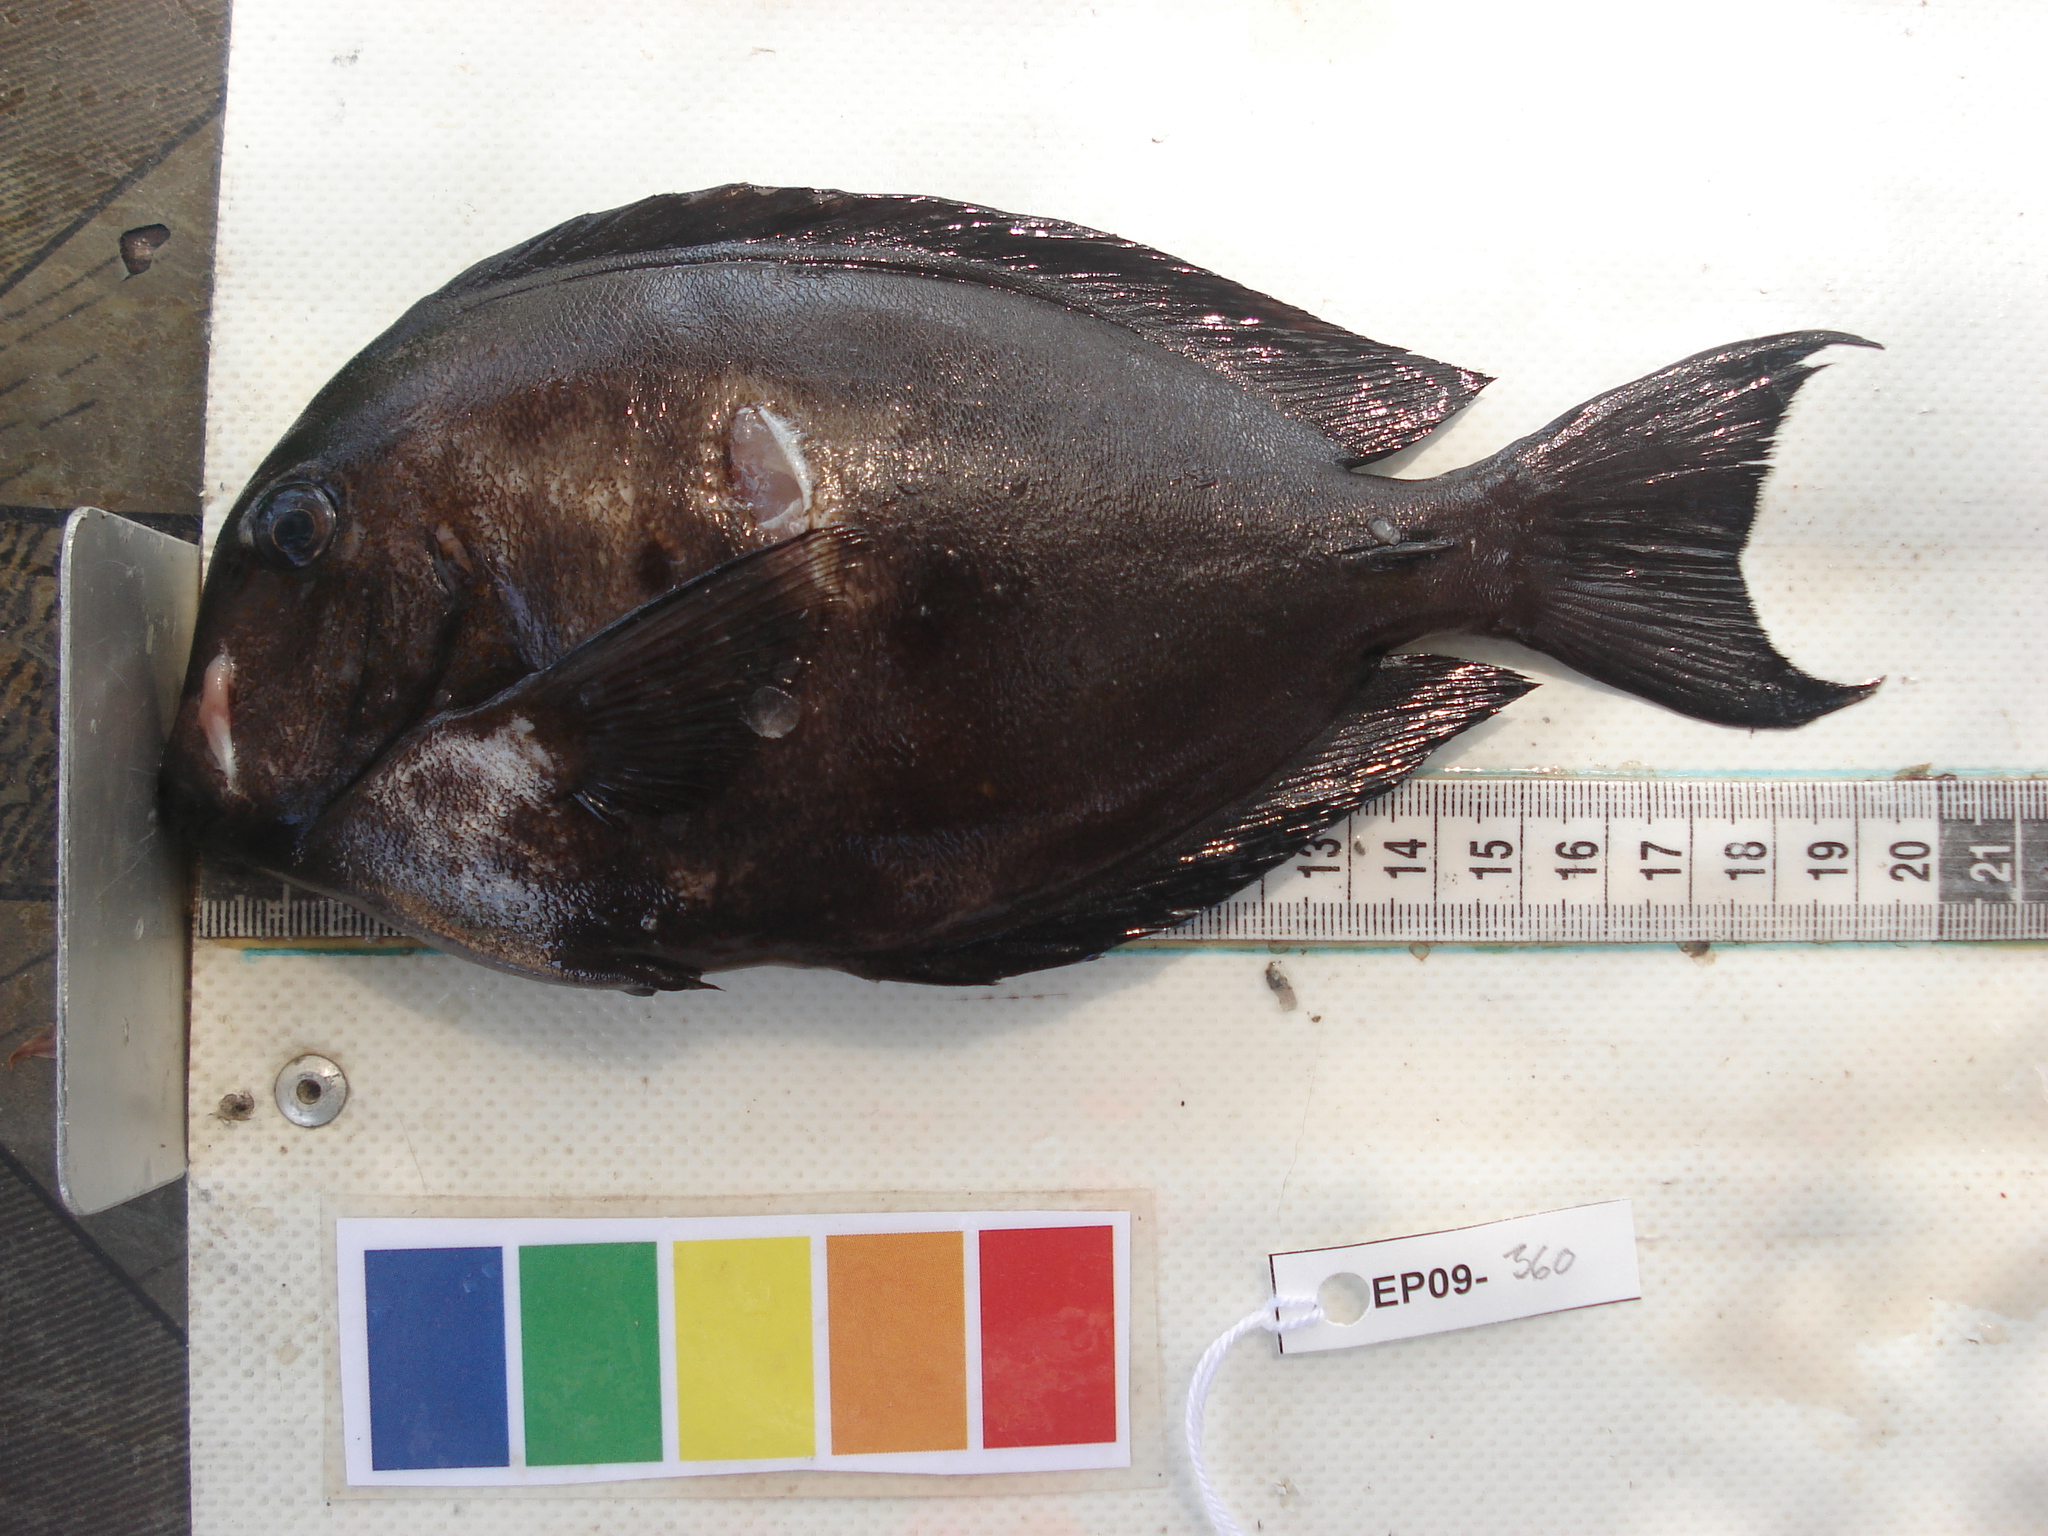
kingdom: Animalia
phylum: Chordata
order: Perciformes
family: Acanthuridae
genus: Acanthurus
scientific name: Acanthurus nigrofuscus
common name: Blackspot surgeonfish
